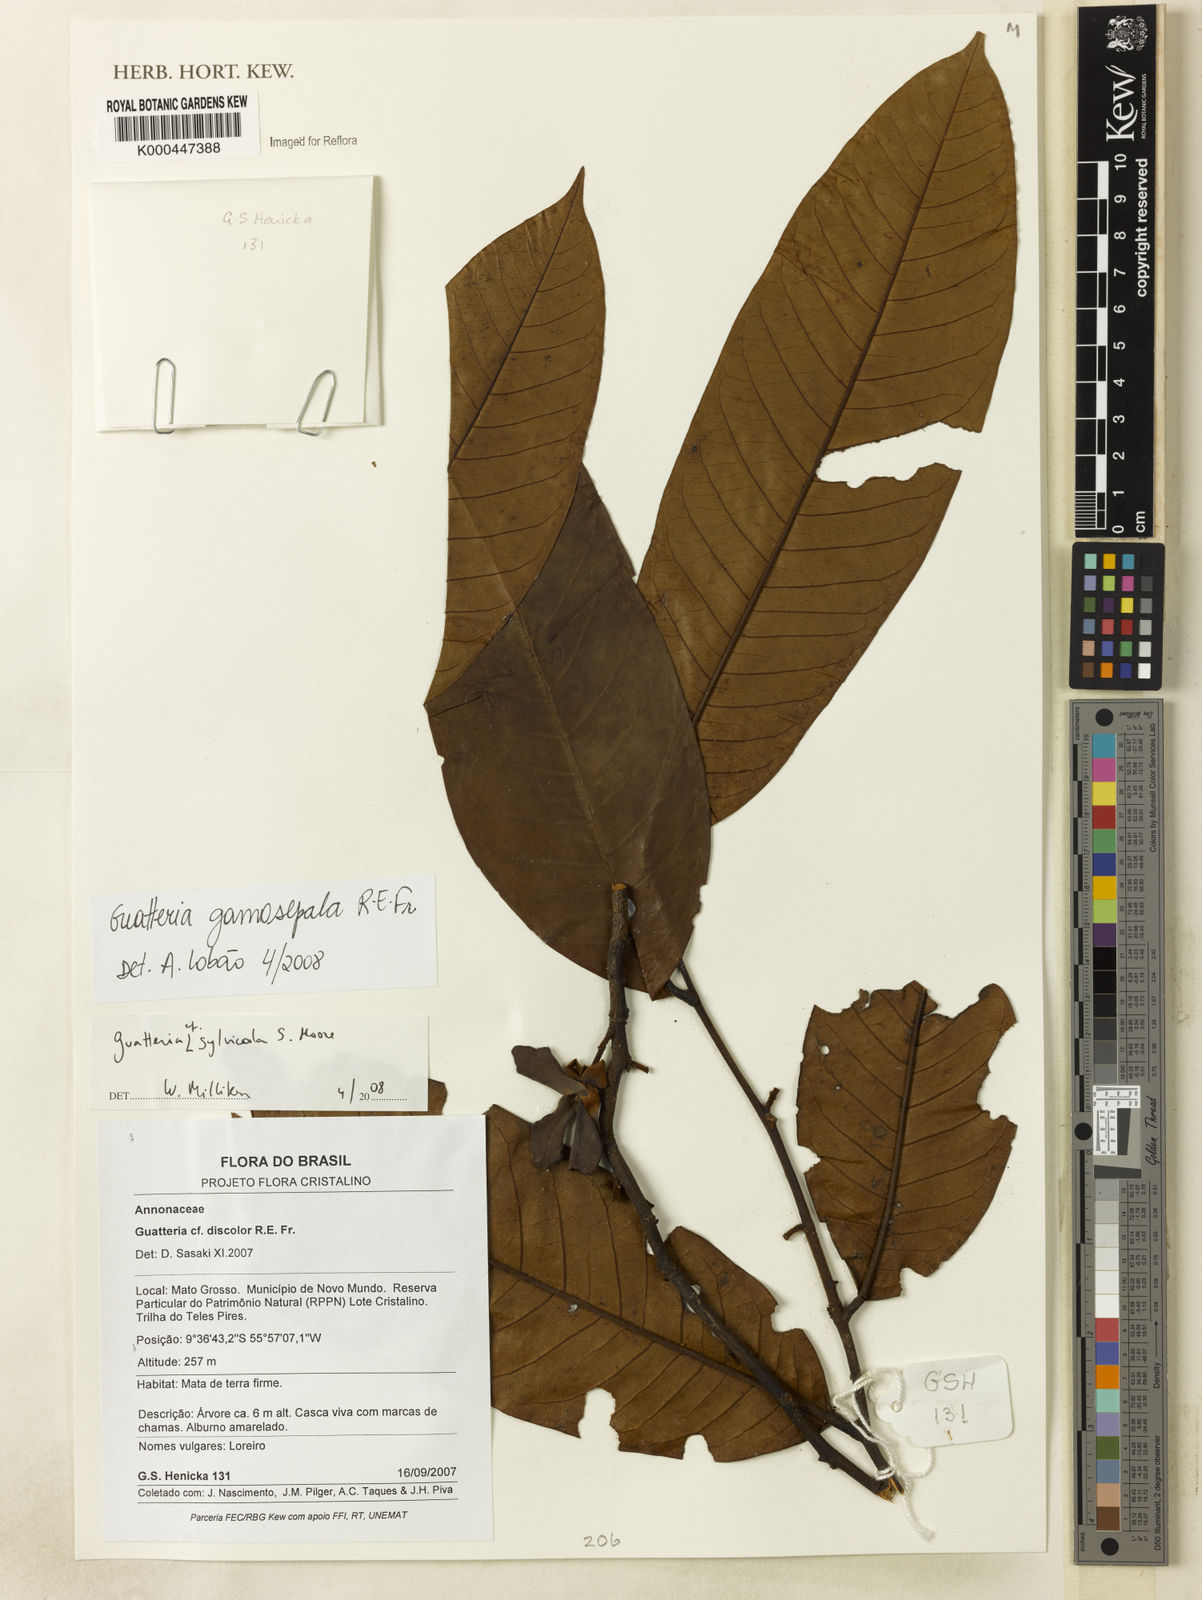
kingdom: Plantae
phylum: Tracheophyta
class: Magnoliopsida
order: Magnoliales
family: Annonaceae
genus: Guatteria
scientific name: Guatteria punctata
